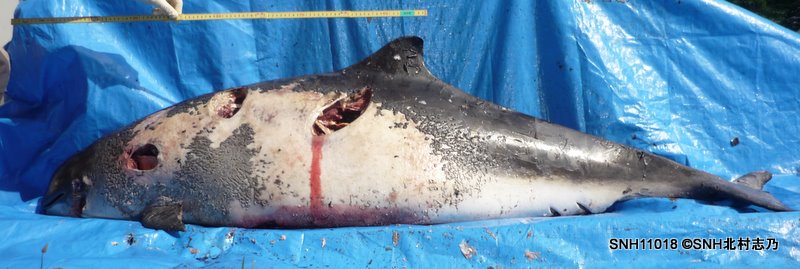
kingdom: Animalia
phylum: Chordata
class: Mammalia
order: Cetacea
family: Phocoenidae
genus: Phocoena
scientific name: Phocoena phocoena
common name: Harbour porpoise
